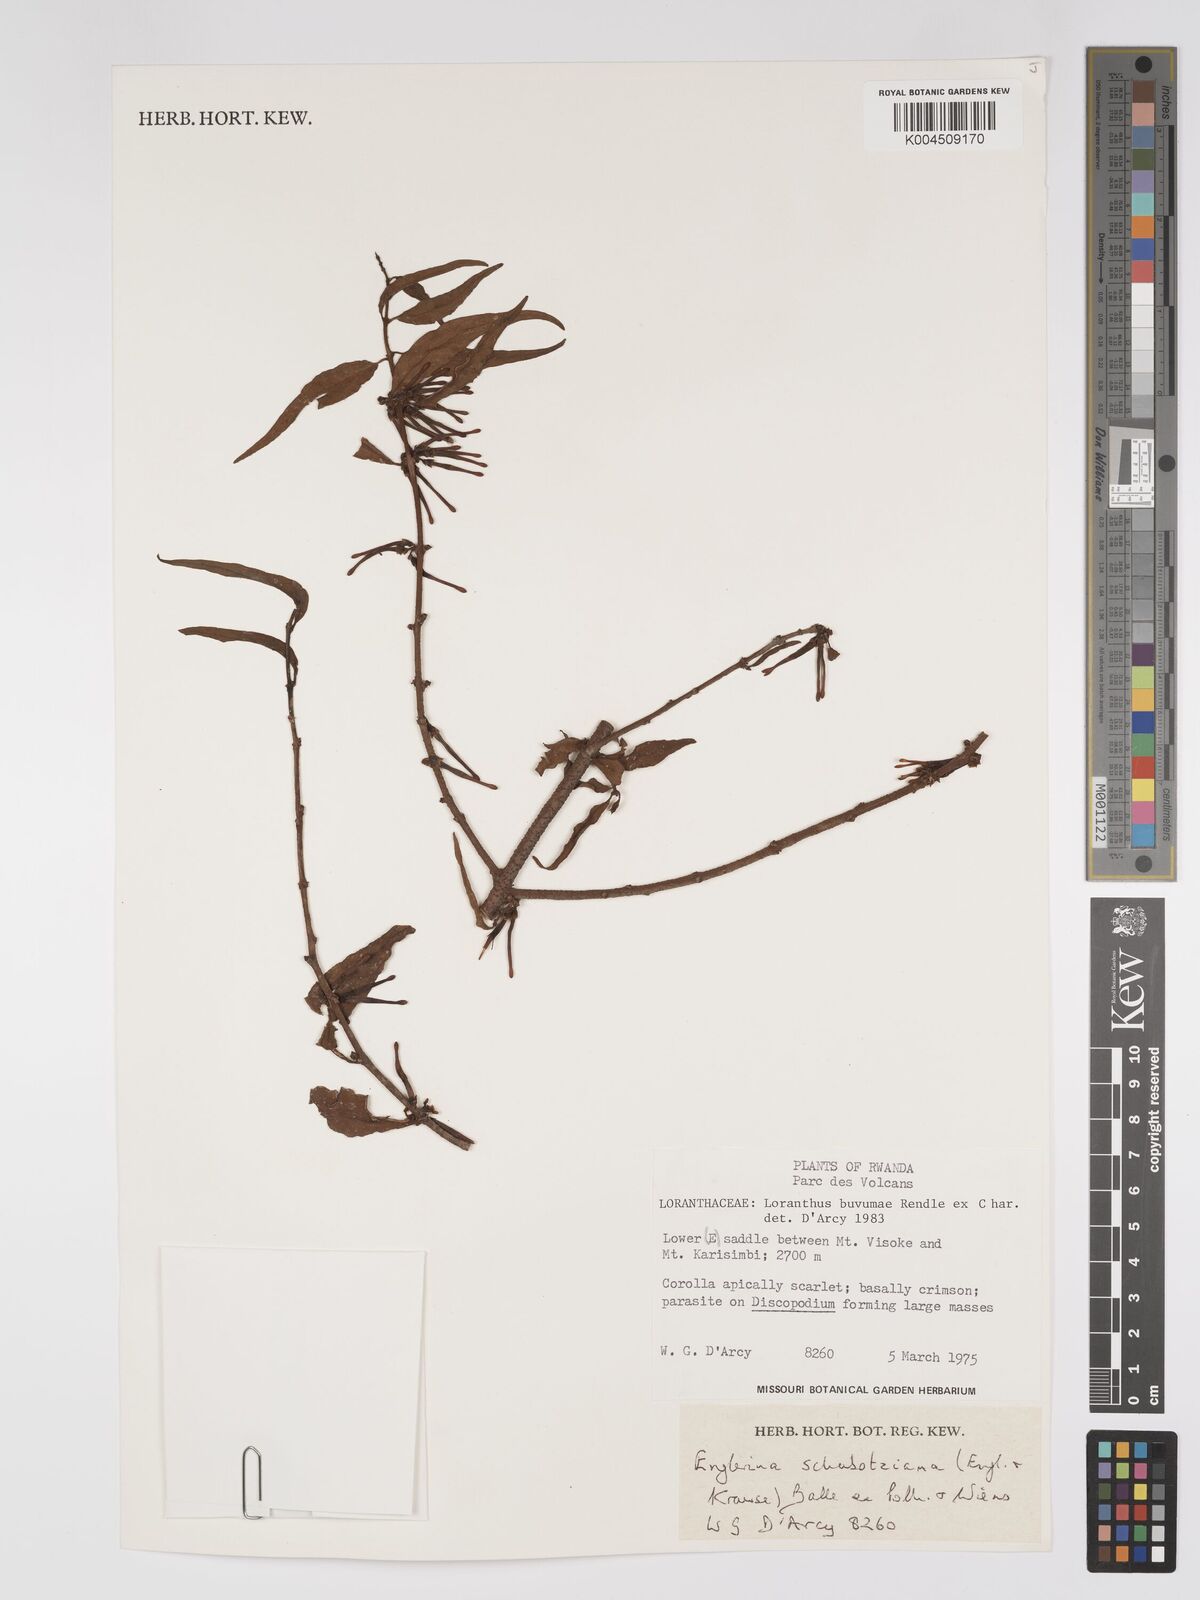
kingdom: Plantae
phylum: Tracheophyta
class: Magnoliopsida
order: Santalales
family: Loranthaceae
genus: Englerina
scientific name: Englerina schubotziana
